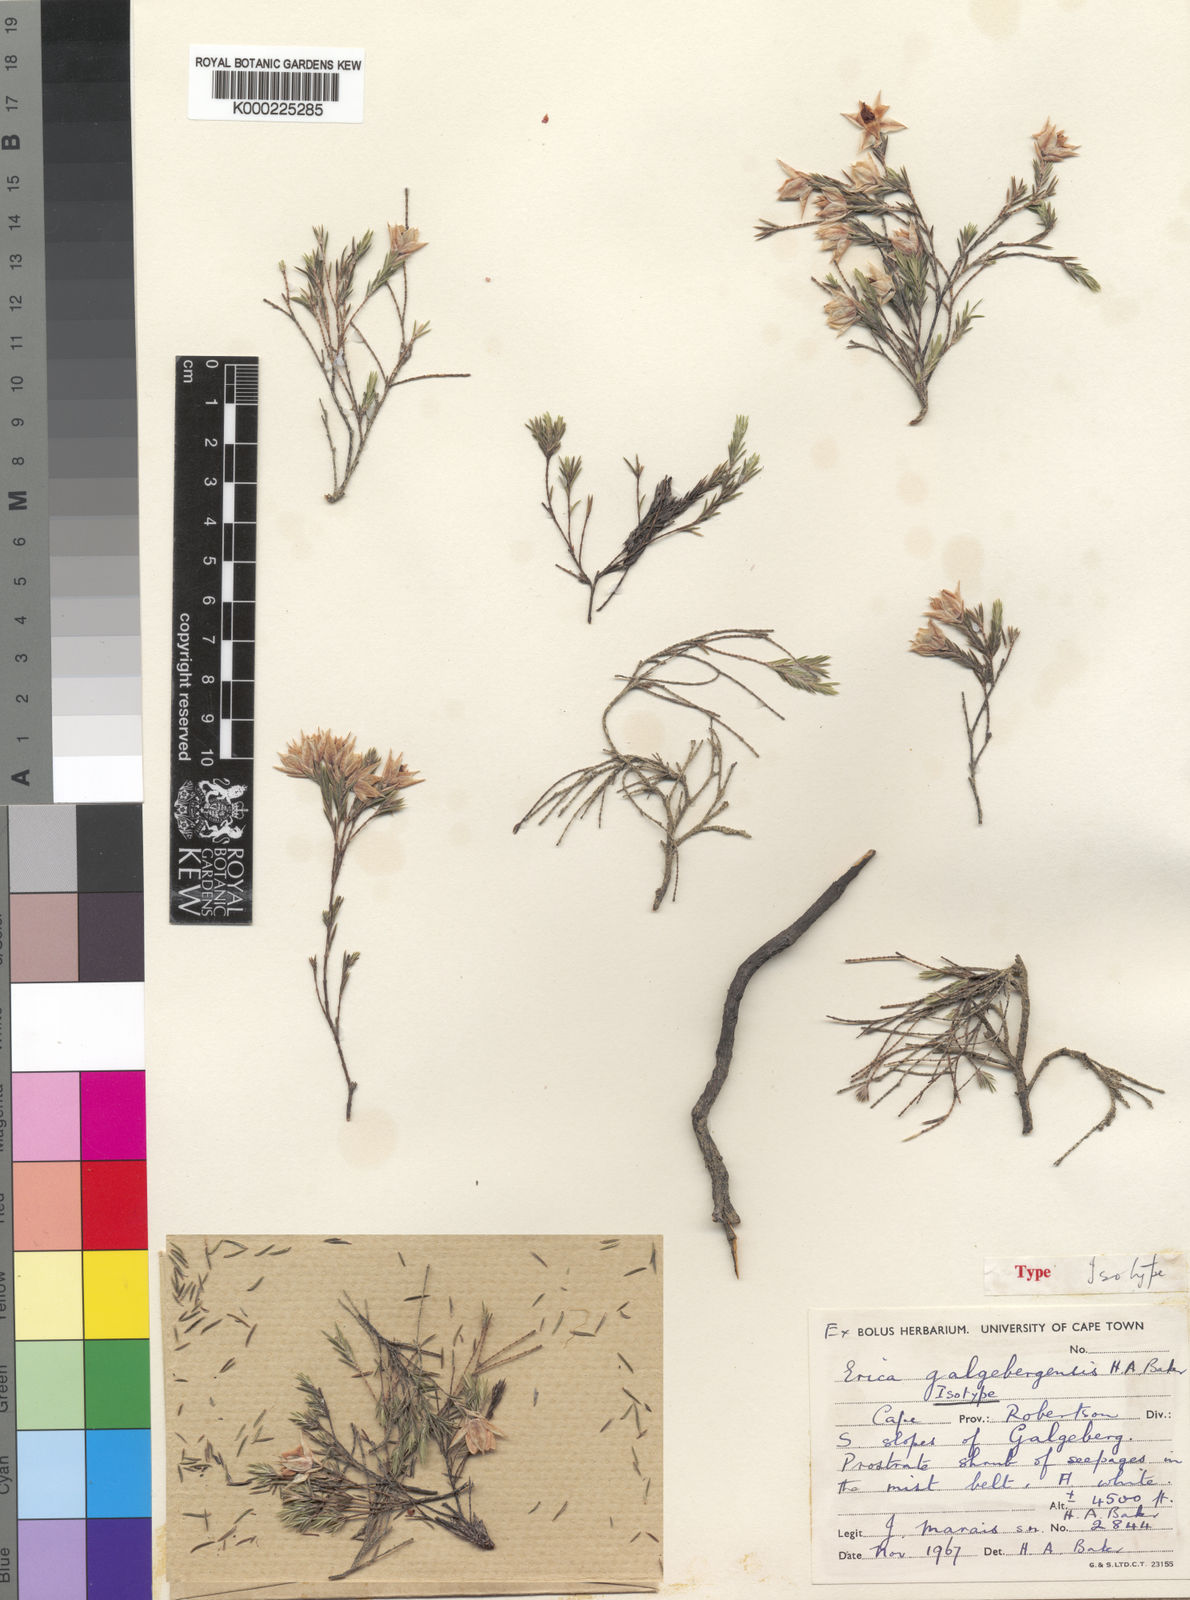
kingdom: Plantae
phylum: Tracheophyta
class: Magnoliopsida
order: Ericales
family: Ericaceae
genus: Erica
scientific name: Erica galgebergensis
